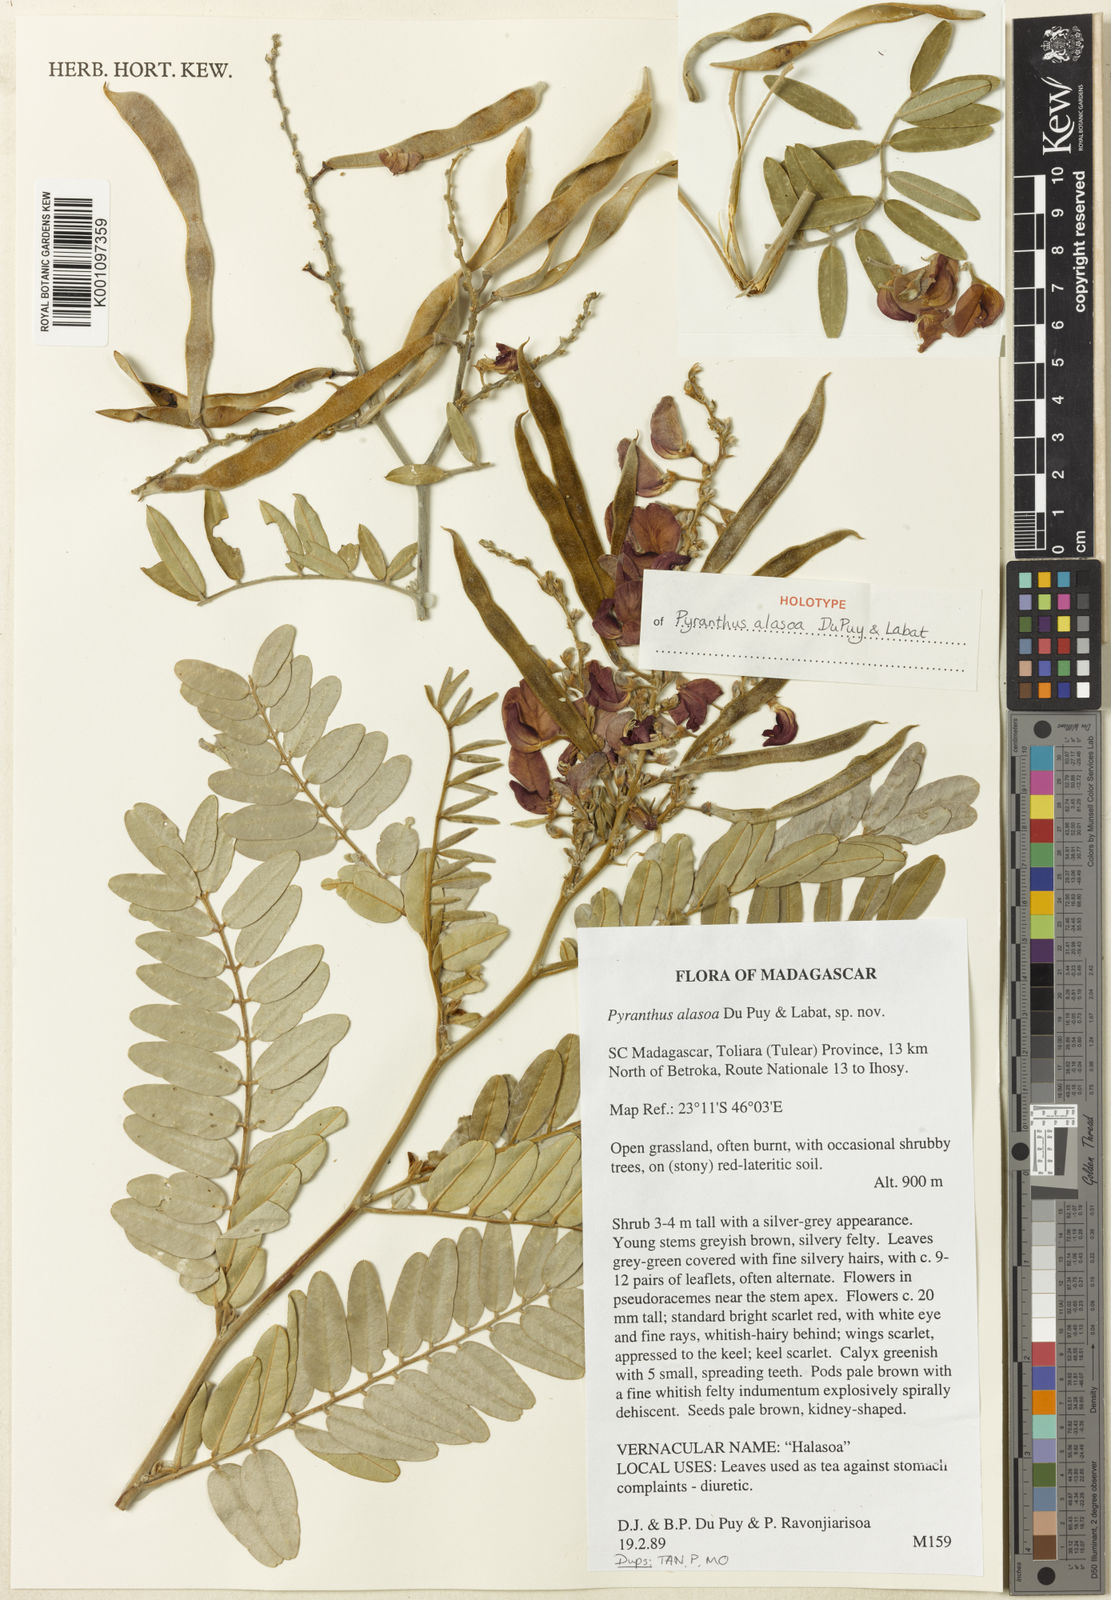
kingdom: Plantae
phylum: Tracheophyta
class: Magnoliopsida
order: Fabales
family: Fabaceae
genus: Pyranthus
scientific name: Pyranthus alasoa
